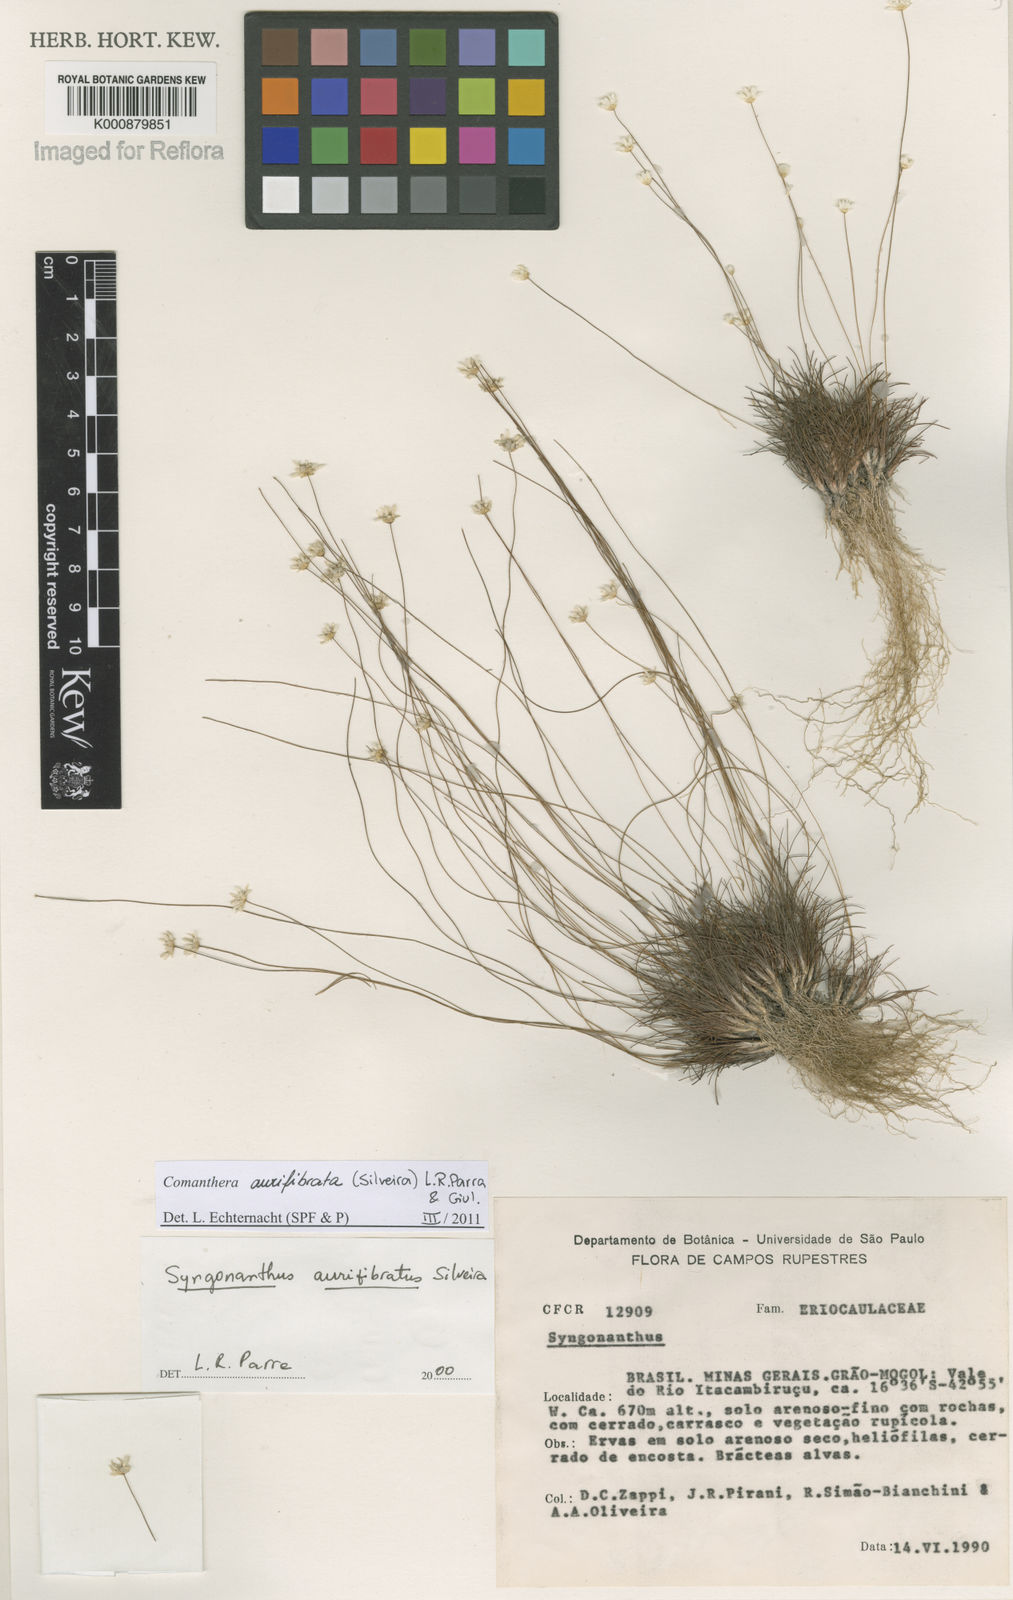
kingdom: Plantae
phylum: Tracheophyta
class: Liliopsida
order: Poales
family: Eriocaulaceae
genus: Comanthera
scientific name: Comanthera aurifibrata
